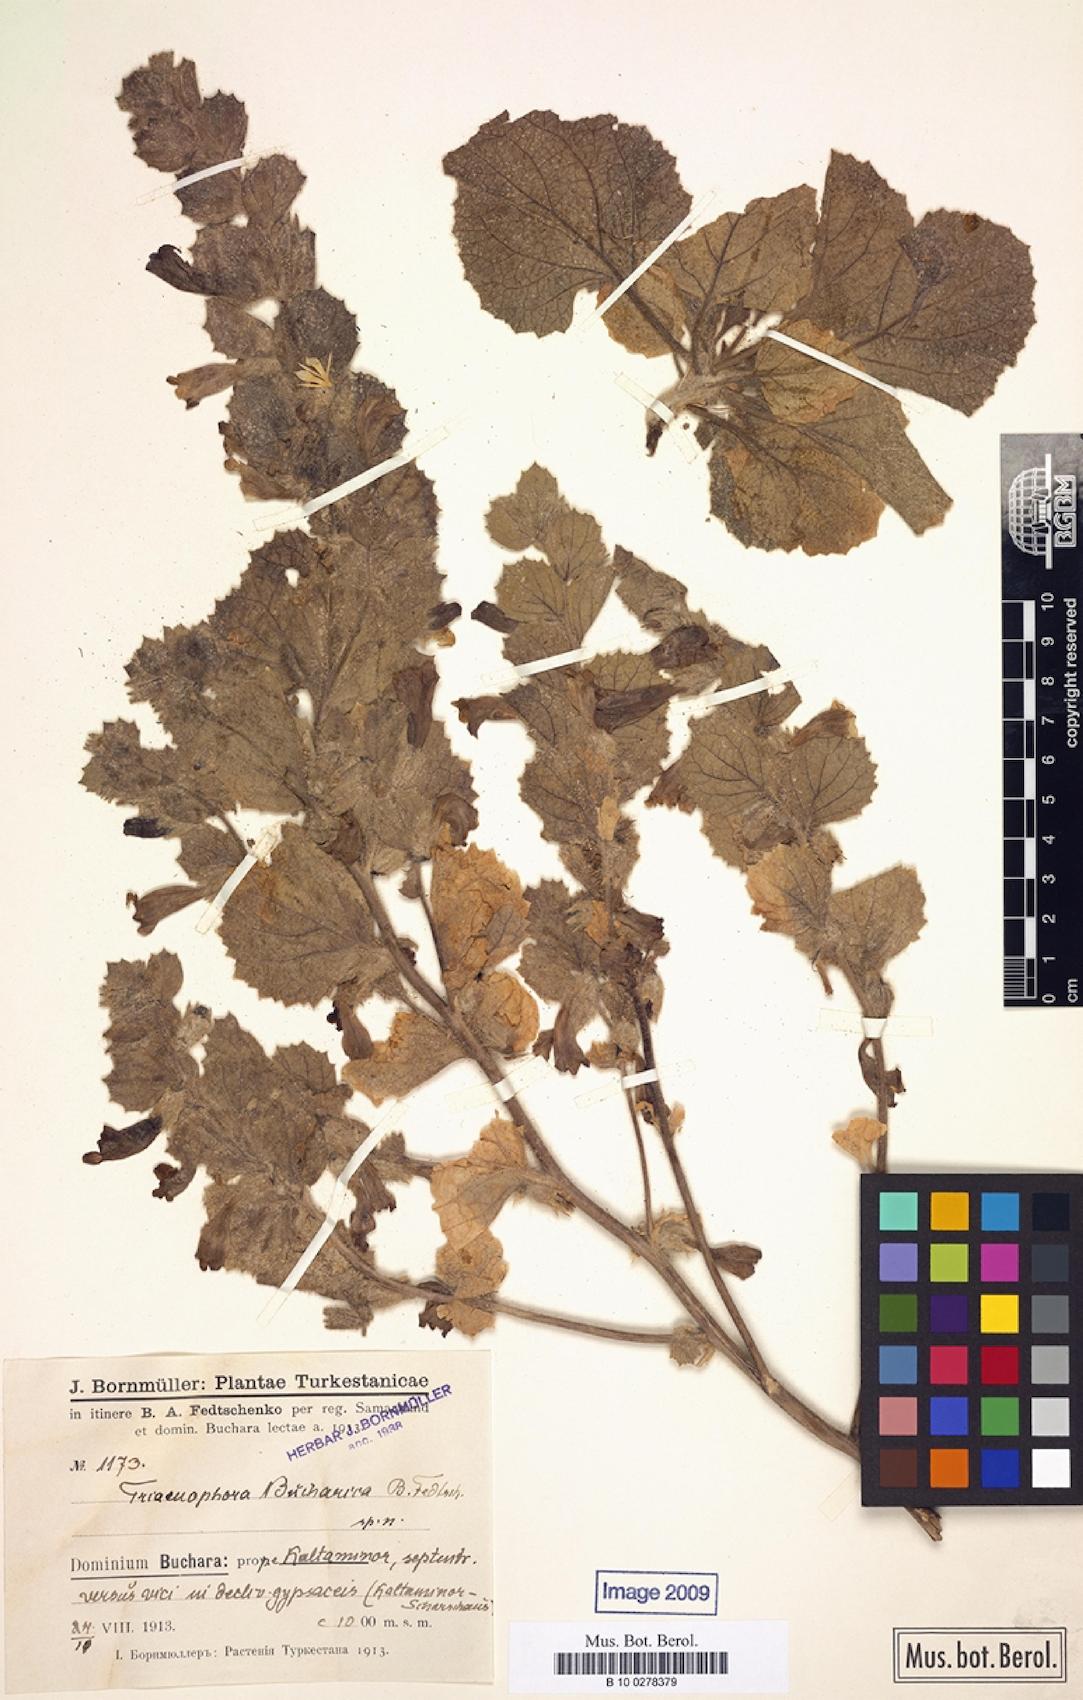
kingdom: Plantae
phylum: Tracheophyta
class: Magnoliopsida
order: Lamiales
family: Rehmanniaceae
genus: Triaenophora
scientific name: Triaenophora bucharica
